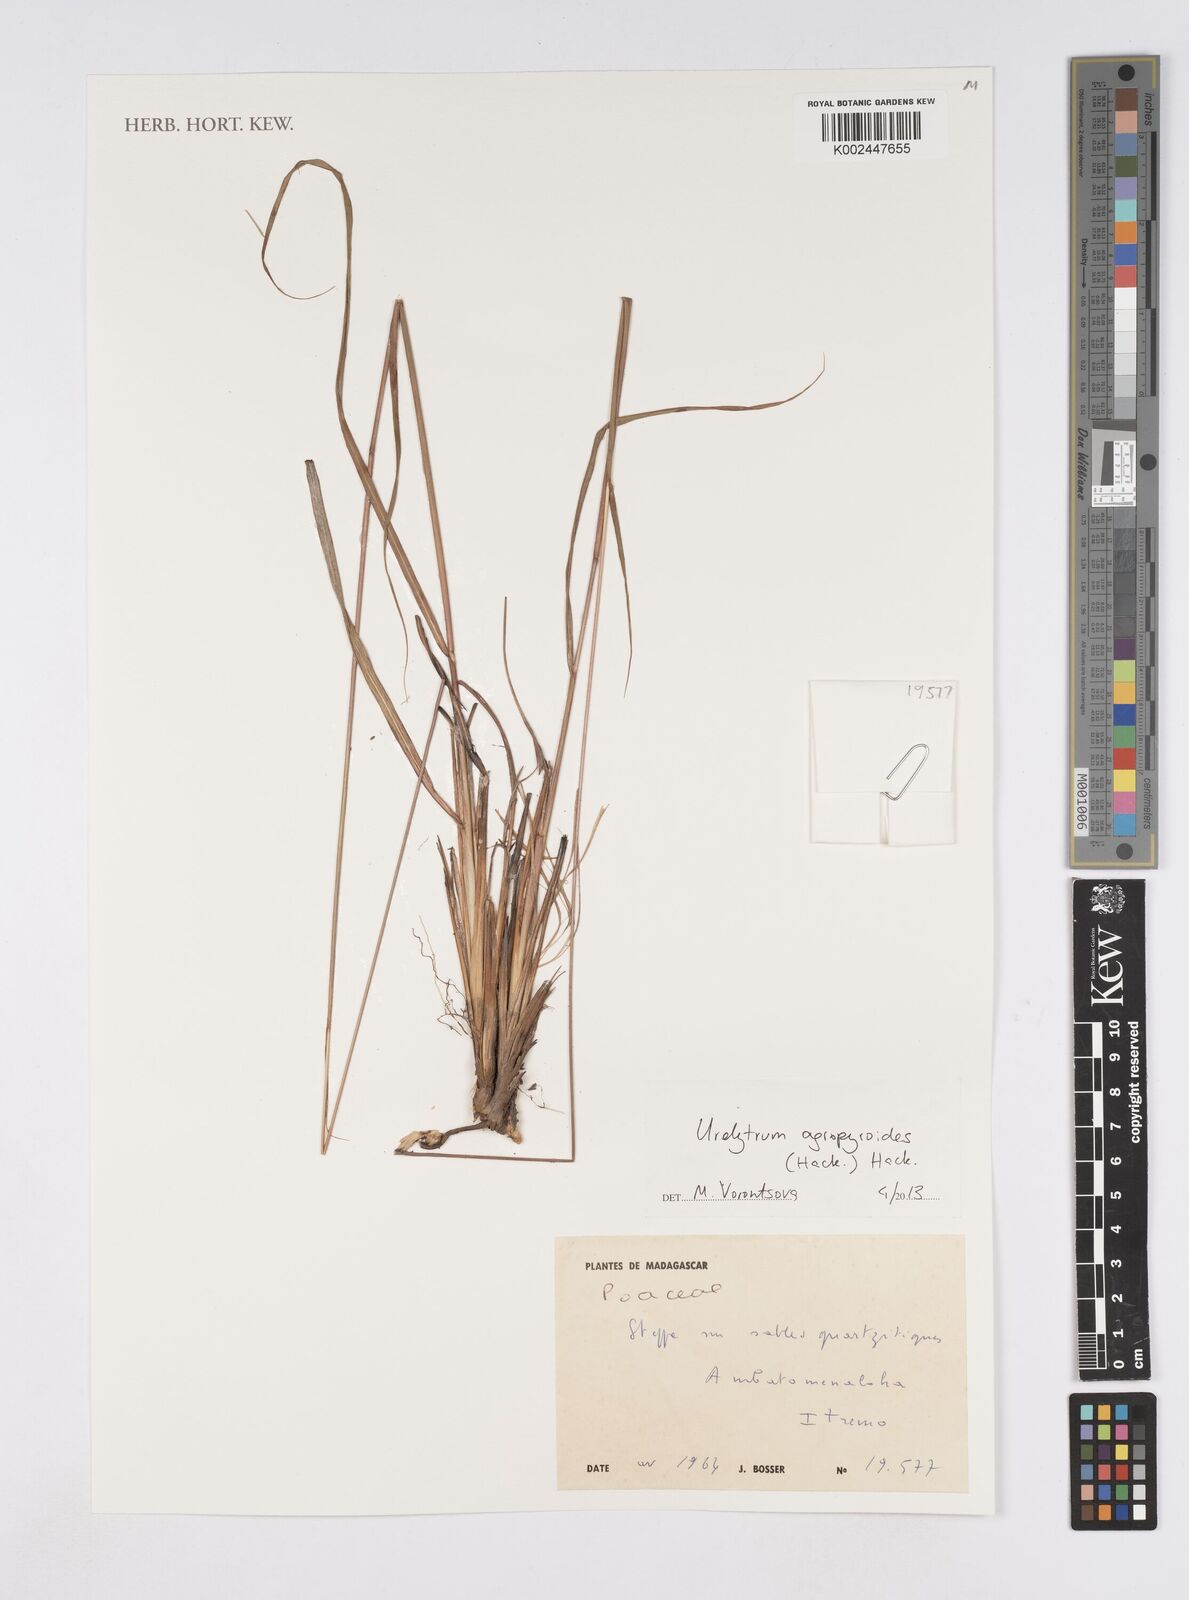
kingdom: Plantae
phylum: Tracheophyta
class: Liliopsida
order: Poales
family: Poaceae
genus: Urelytrum
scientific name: Urelytrum agropyroides
